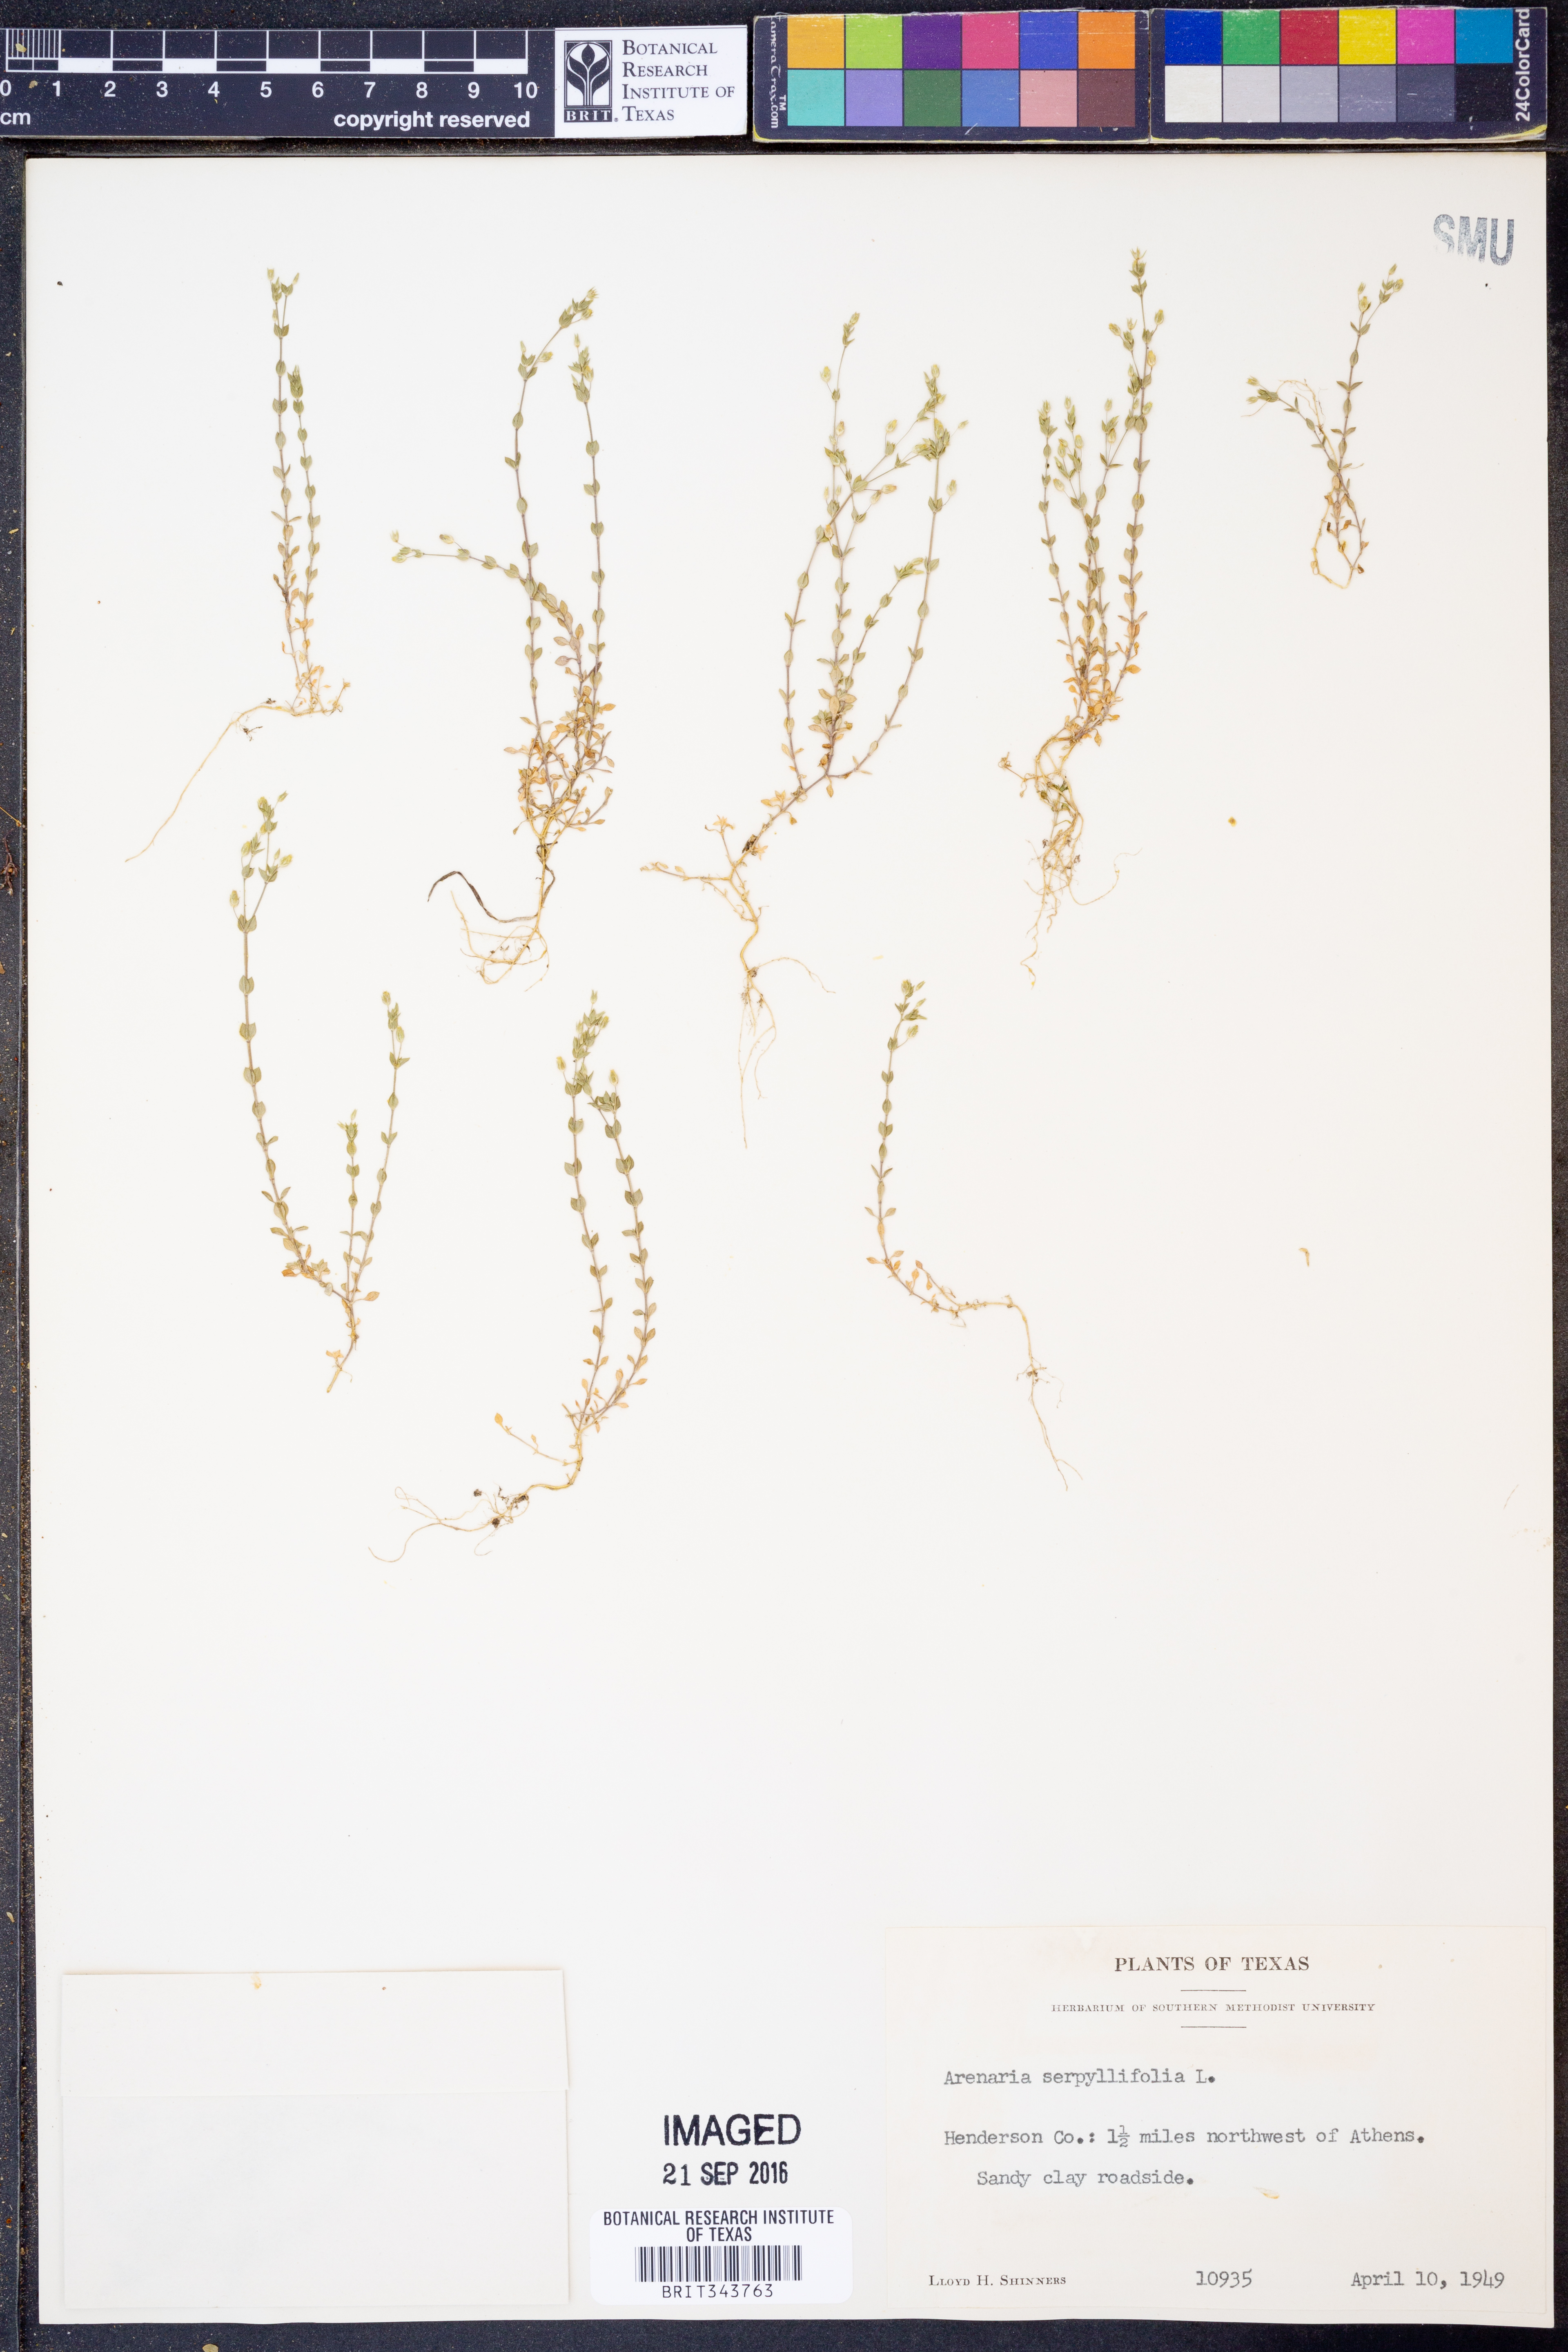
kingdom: Plantae
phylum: Tracheophyta
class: Magnoliopsida
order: Caryophyllales
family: Caryophyllaceae
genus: Arenaria
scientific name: Arenaria serpyllifolia
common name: Thyme-leaved sandwort
